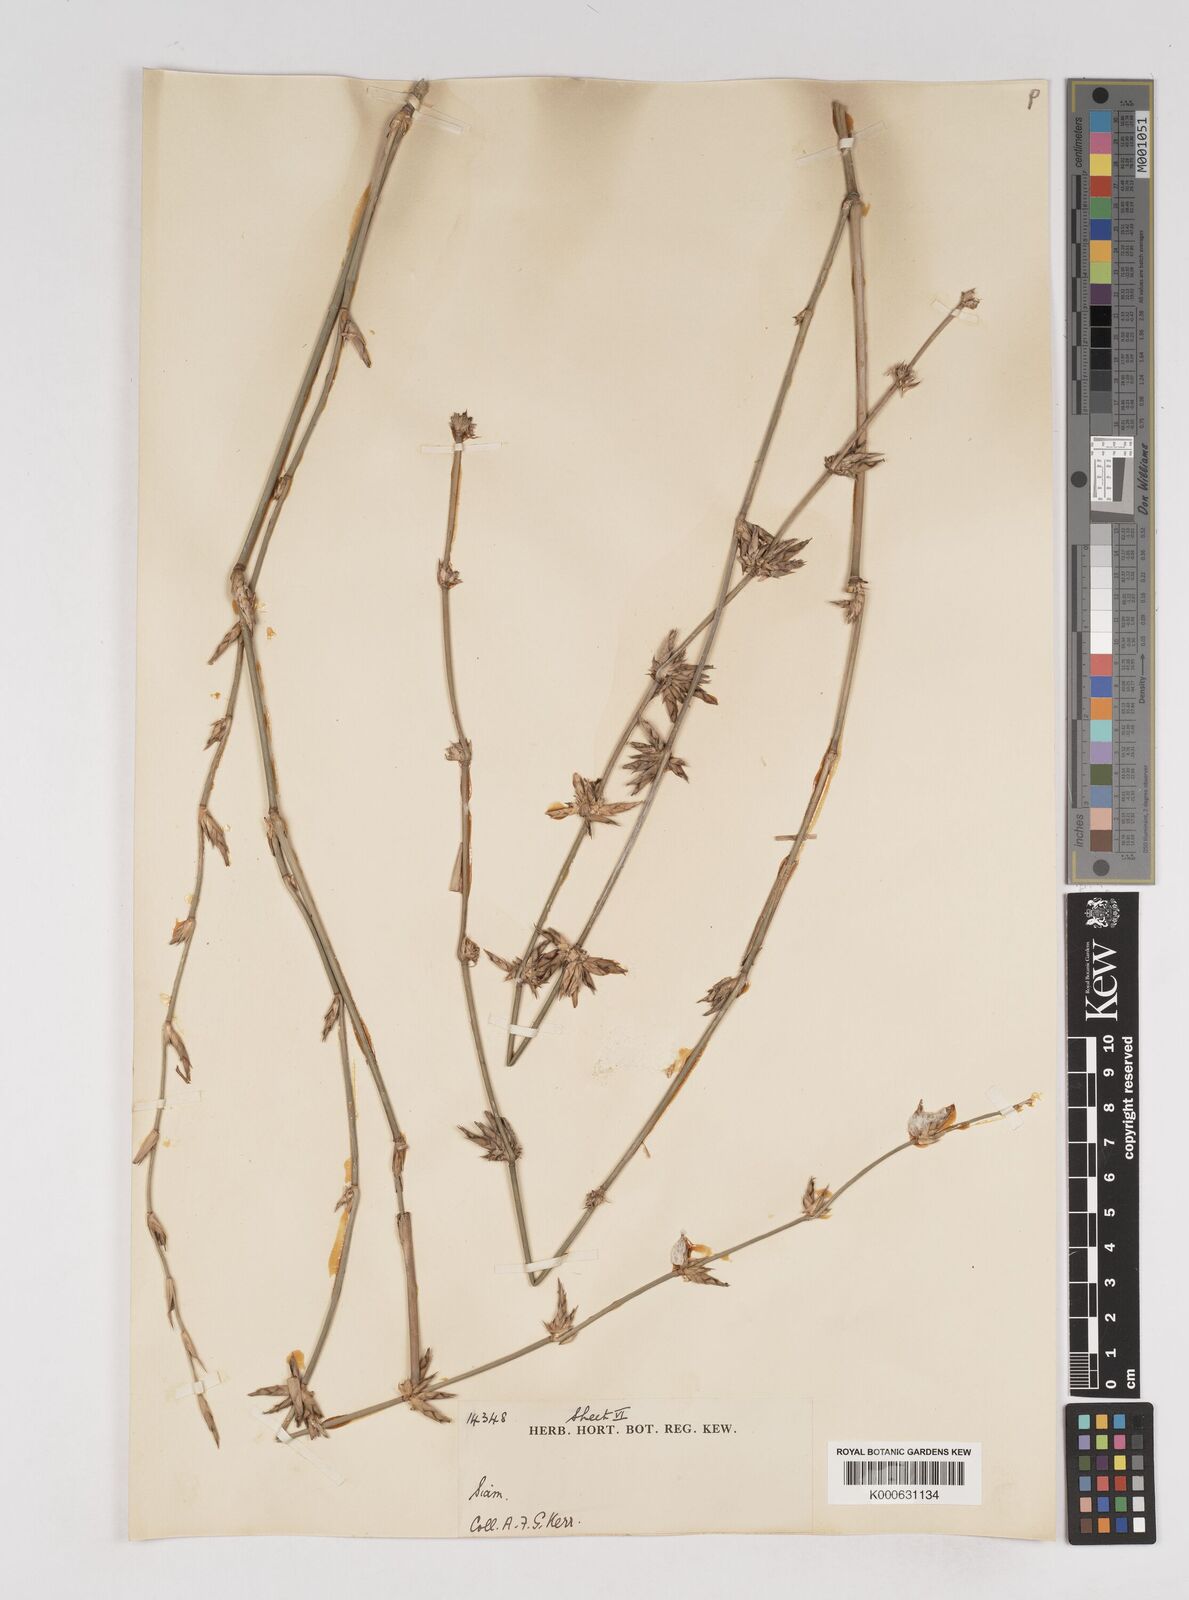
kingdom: Plantae
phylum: Tracheophyta
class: Liliopsida
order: Poales
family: Poaceae
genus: Gigantochloa
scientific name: Gigantochloa
